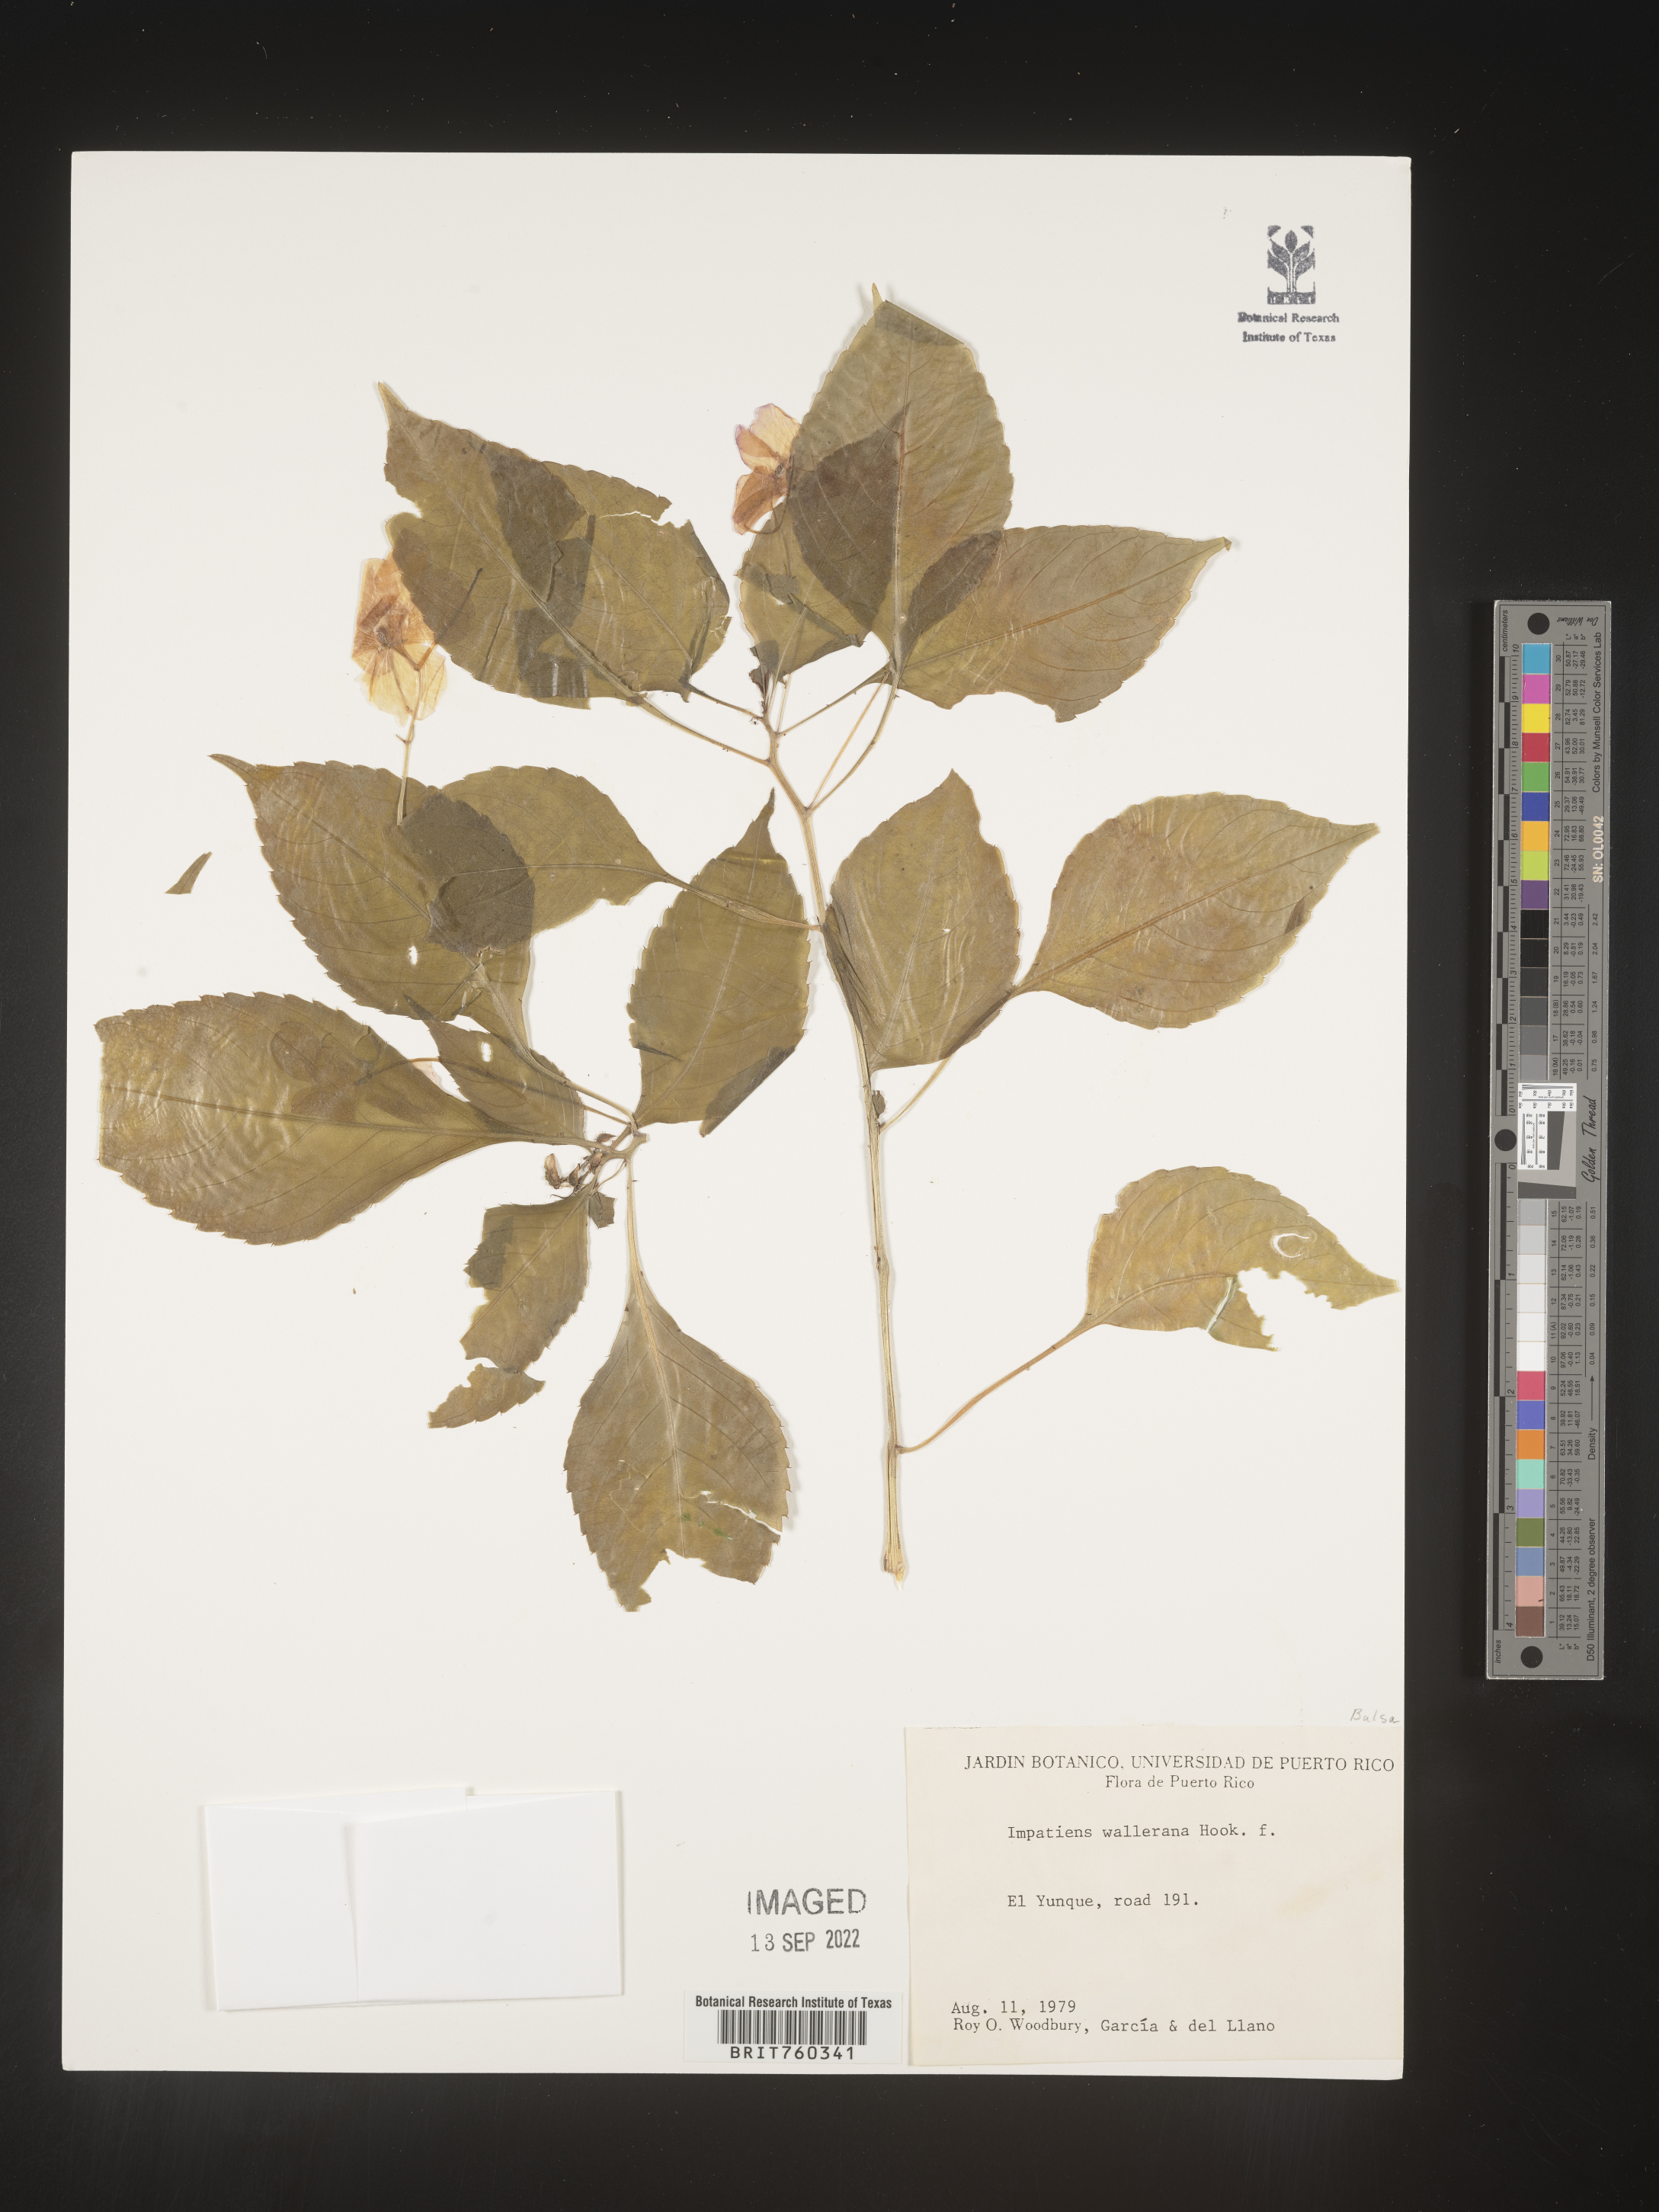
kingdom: Plantae
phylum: Tracheophyta
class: Magnoliopsida
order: Ericales
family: Balsaminaceae
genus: Impatiens
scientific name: Impatiens
